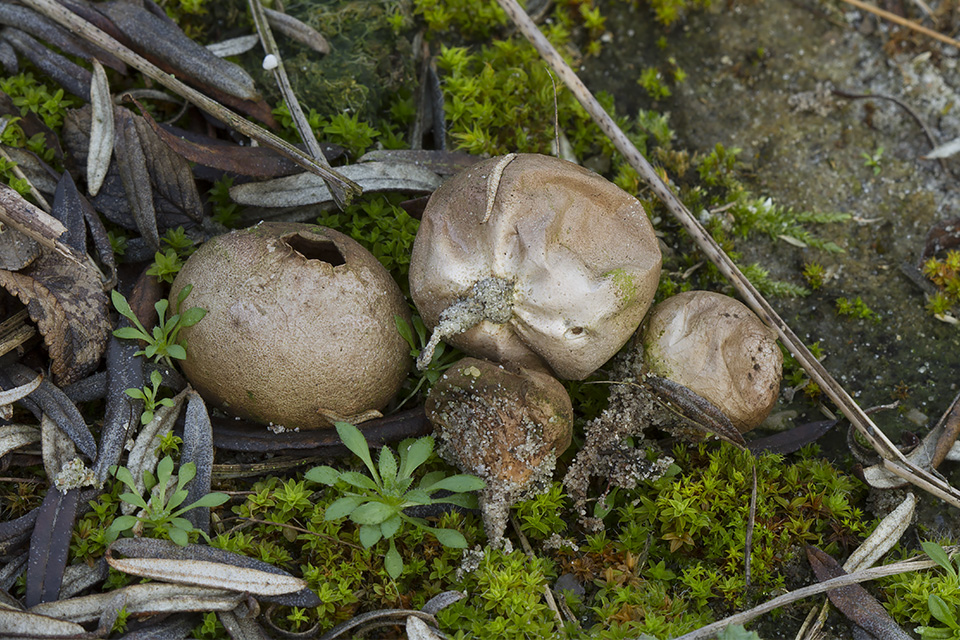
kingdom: Fungi
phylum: Basidiomycota
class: Agaricomycetes
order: Agaricales
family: Lycoperdaceae
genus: Bovista
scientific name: Bovista furfuracea
